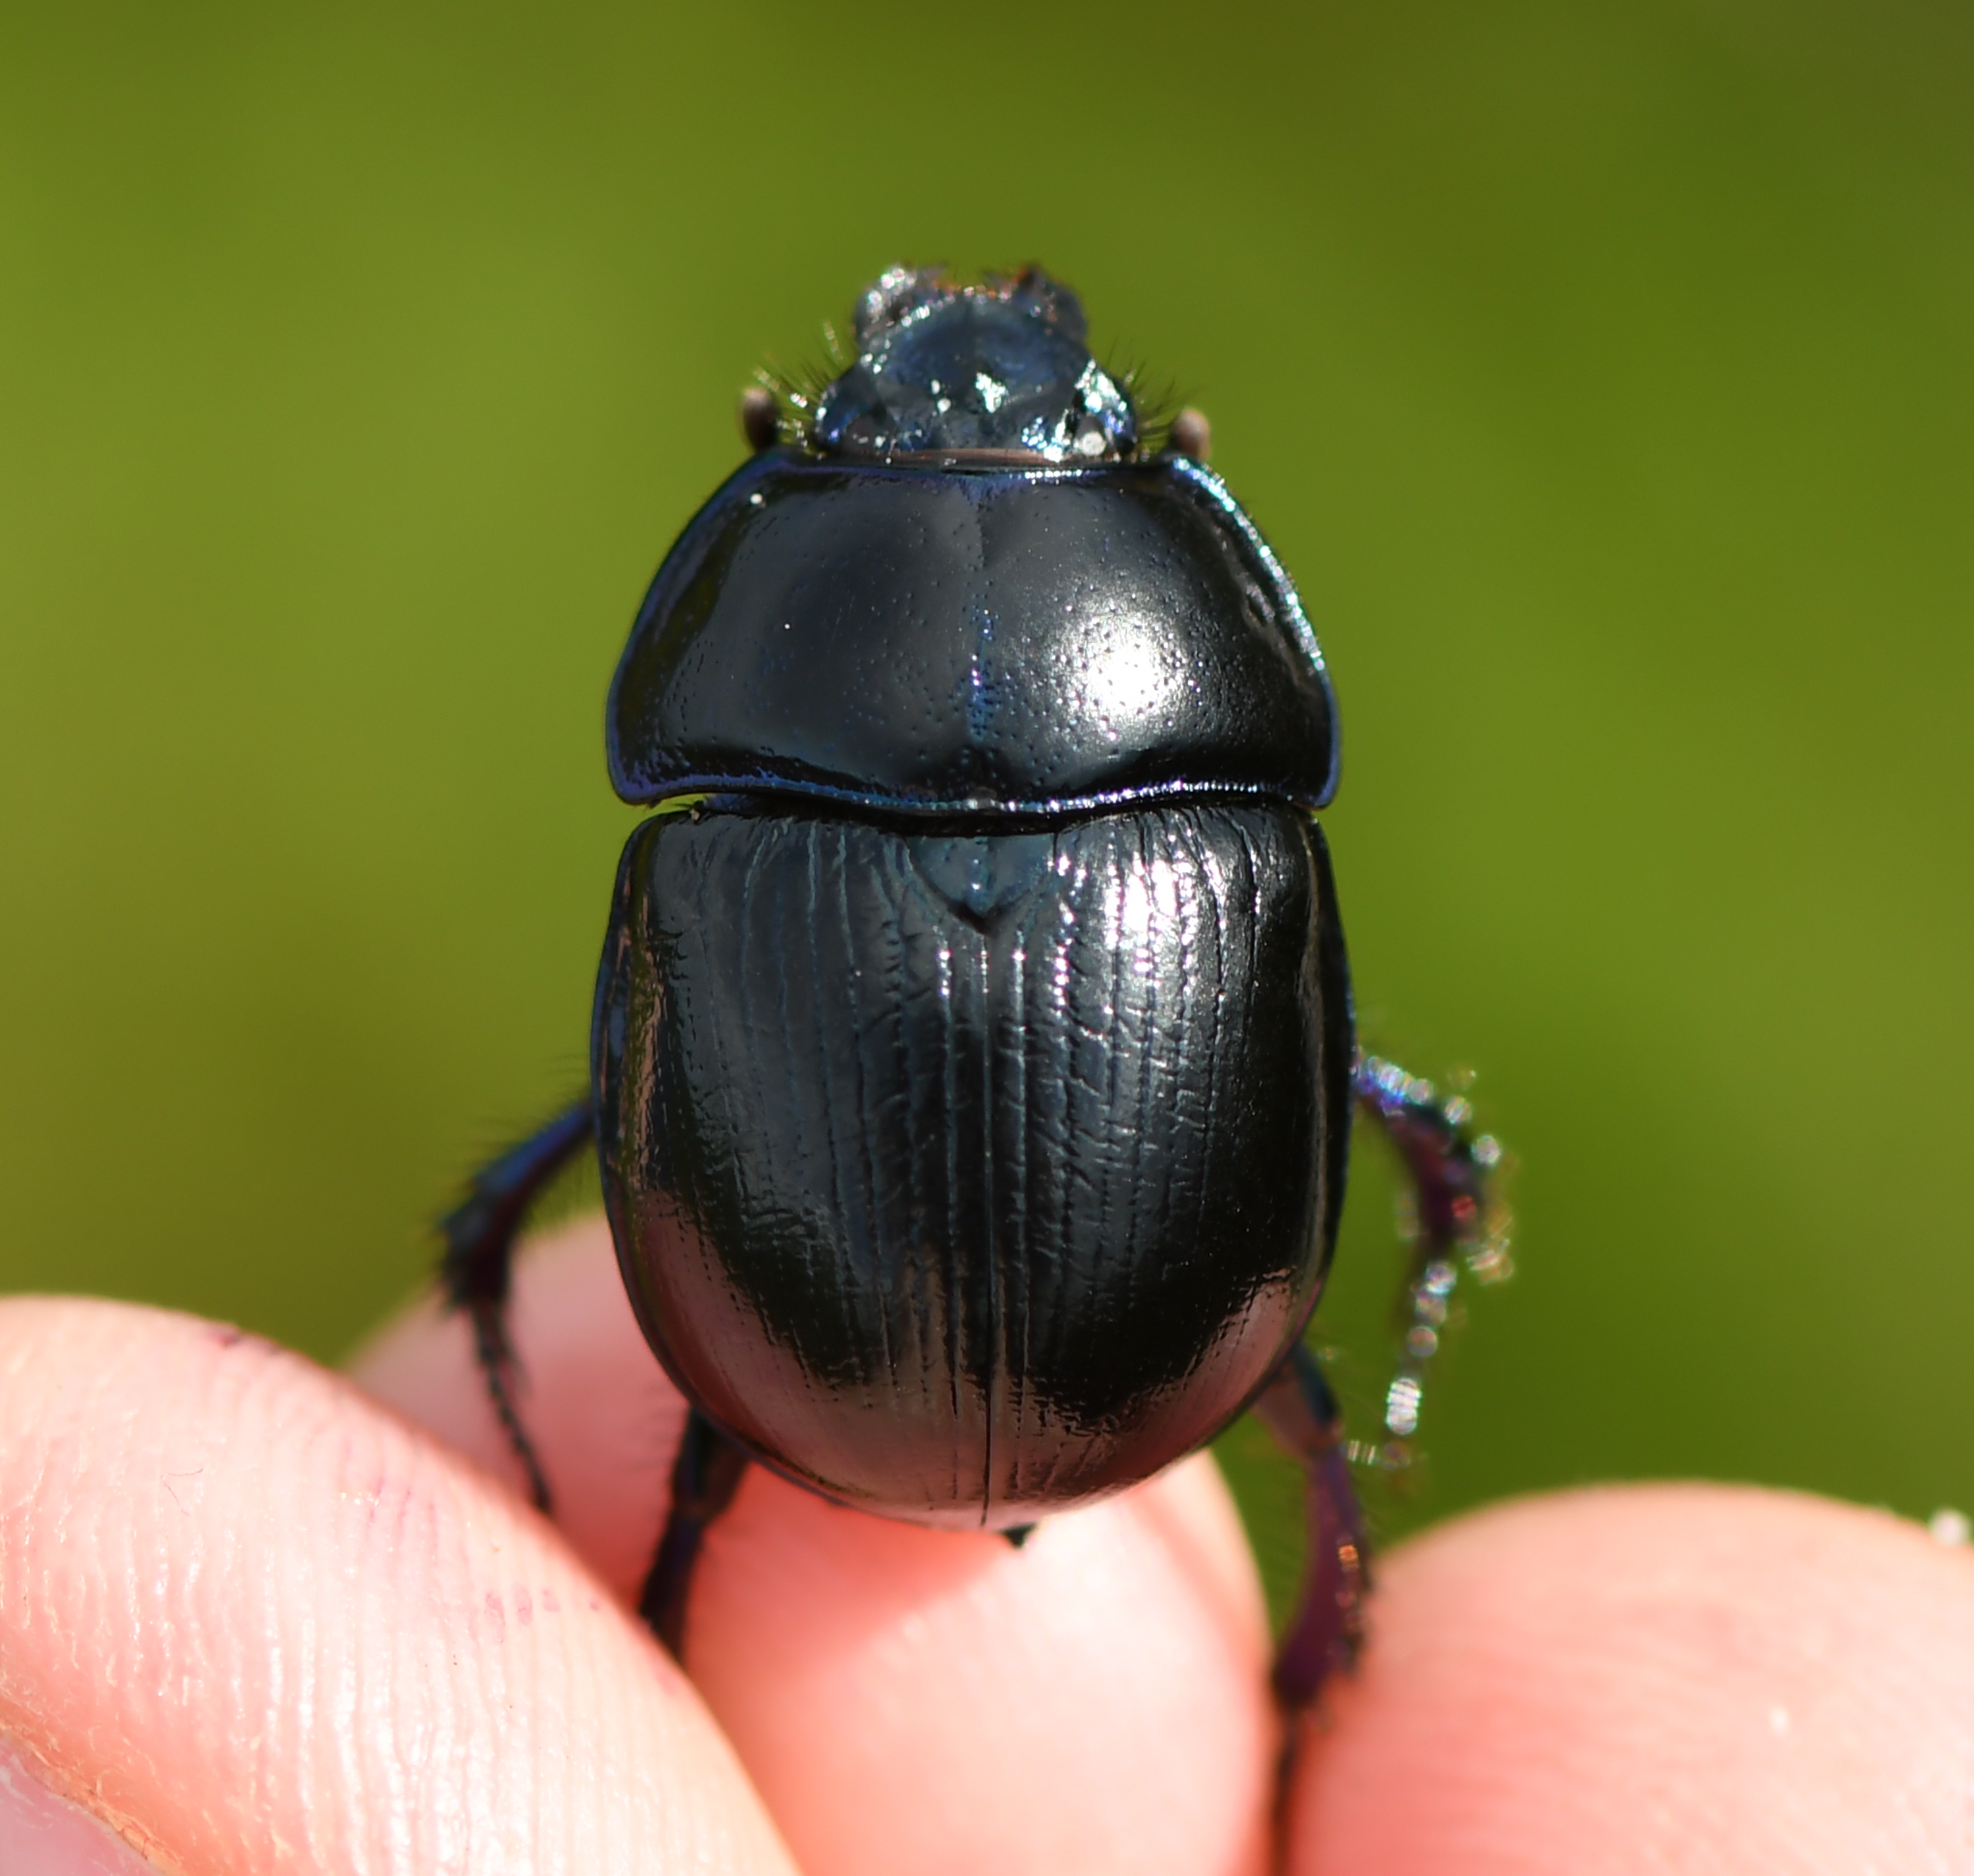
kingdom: Animalia
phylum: Arthropoda
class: Insecta
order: Coleoptera
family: Geotrupidae
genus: Anoplotrupes
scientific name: Anoplotrupes stercorosus
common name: Skovskarnbasse
